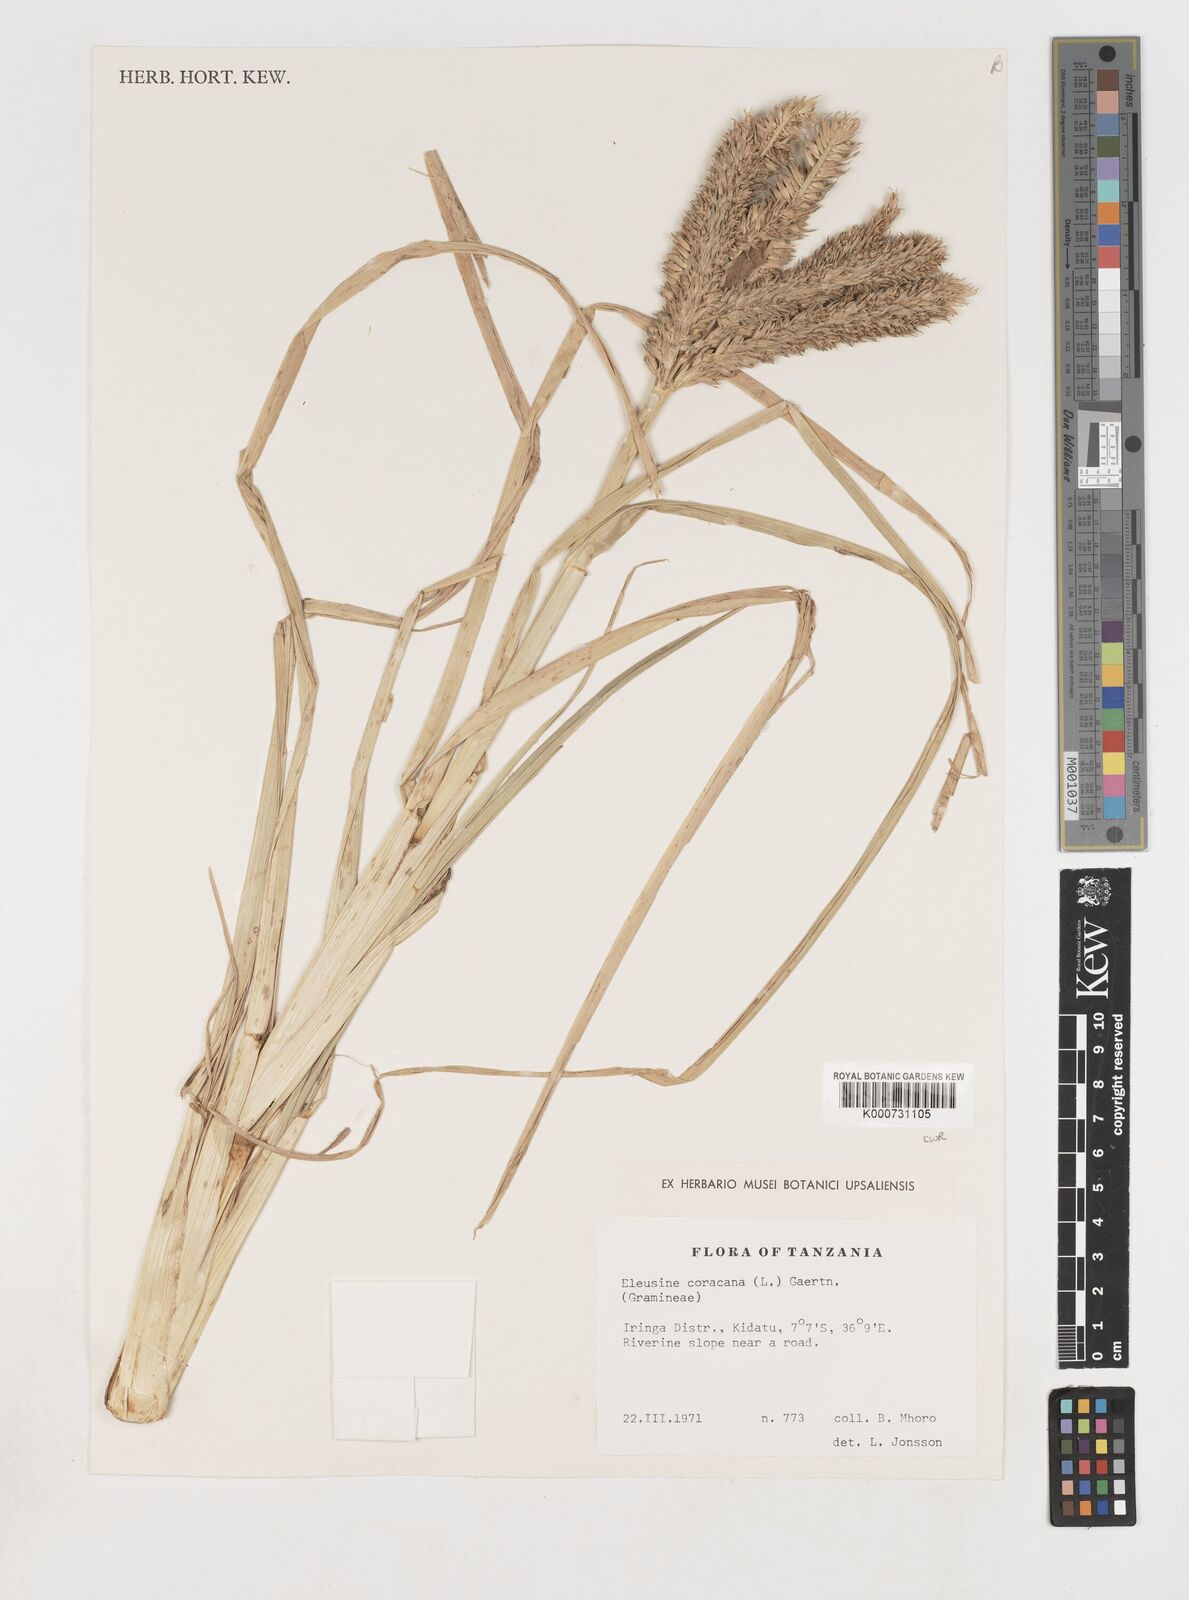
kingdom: Plantae
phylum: Tracheophyta
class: Liliopsida
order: Poales
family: Poaceae
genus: Eleusine
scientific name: Eleusine coracana
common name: Finger millet
